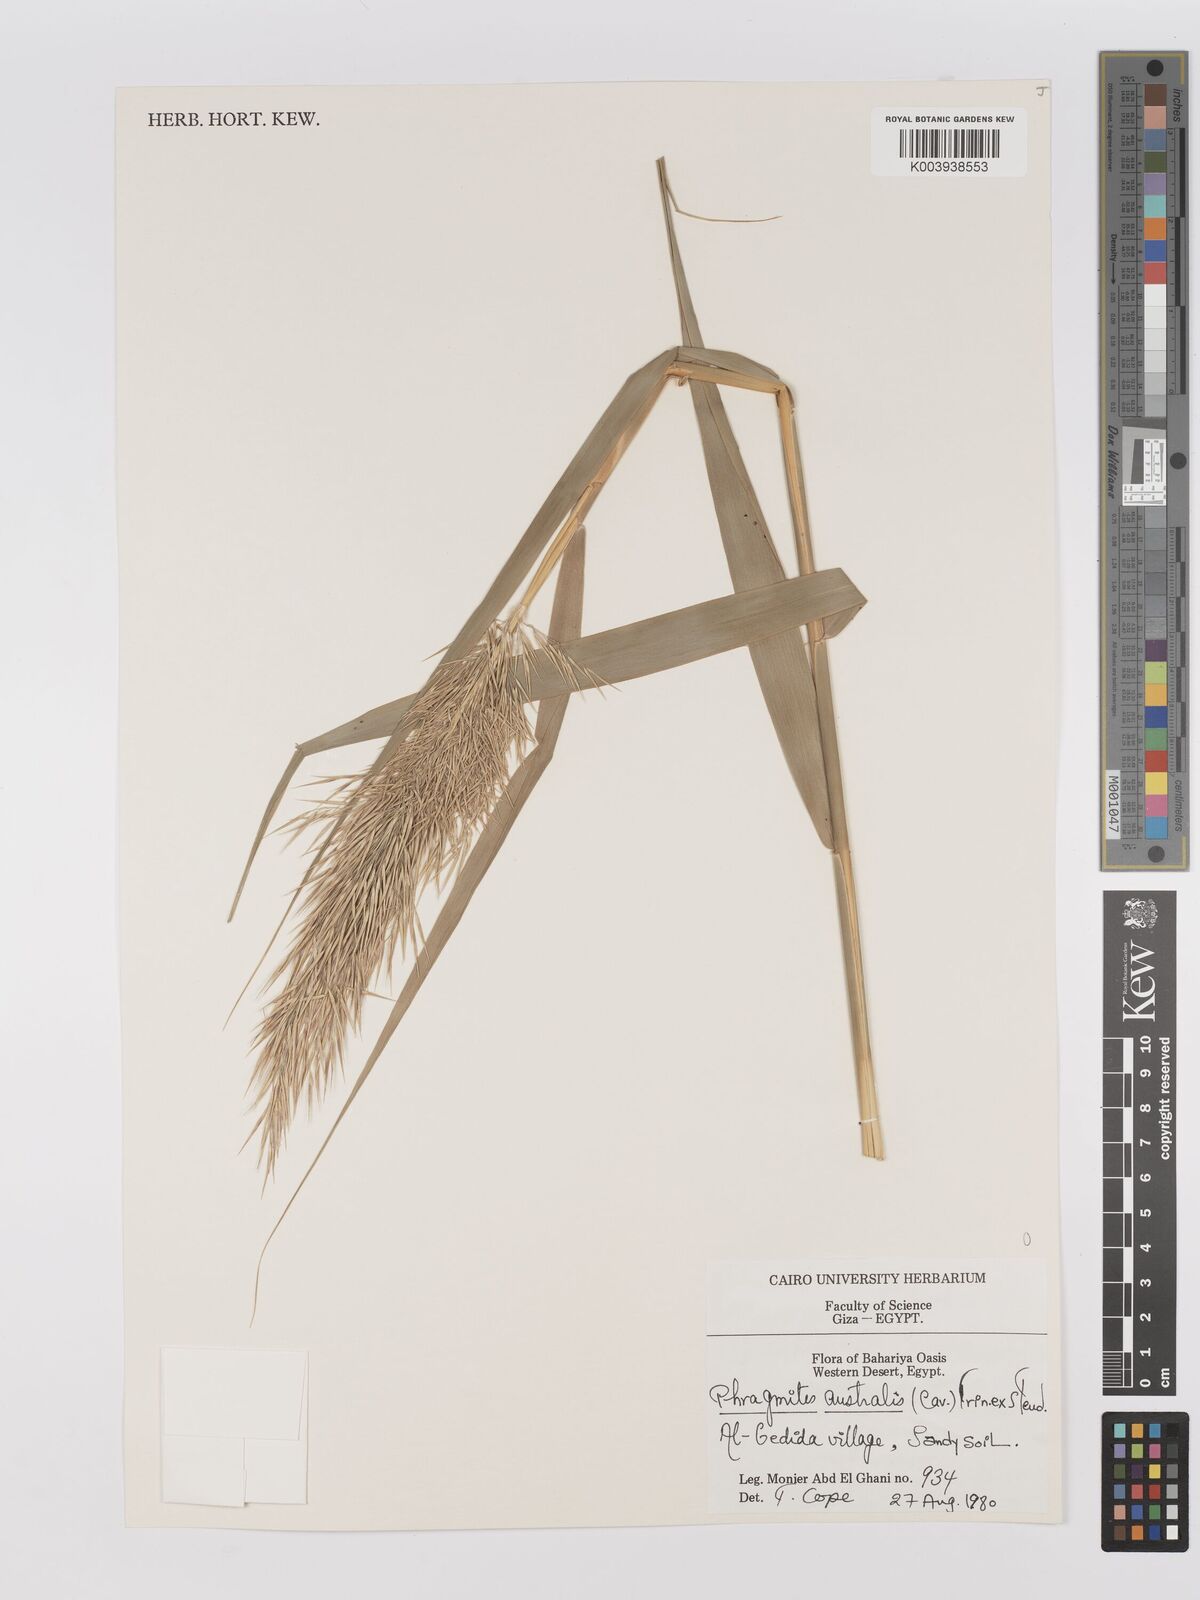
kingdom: Plantae
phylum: Tracheophyta
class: Liliopsida
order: Poales
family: Poaceae
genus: Phragmites
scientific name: Phragmites australis
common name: Common reed
